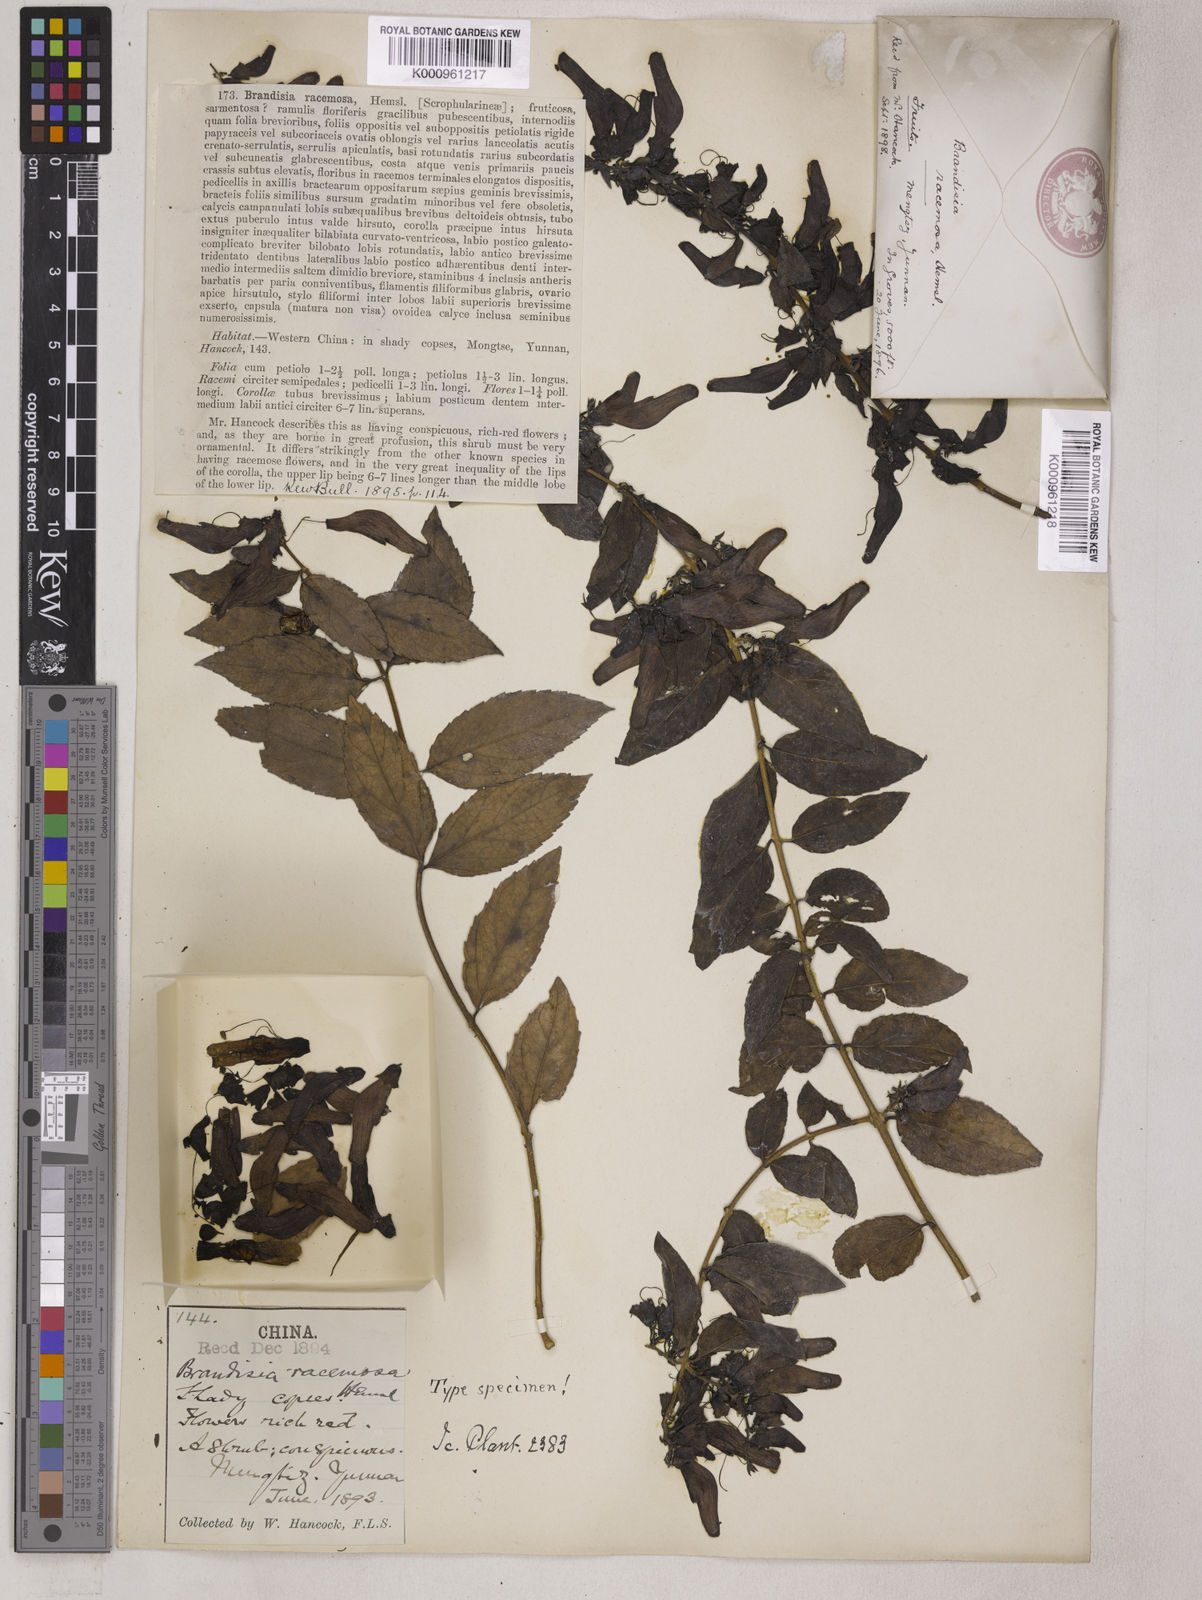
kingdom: Plantae
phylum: Tracheophyta
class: Magnoliopsida
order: Lamiales
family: Orobanchaceae
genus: Brandisia
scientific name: Brandisia racemosa
